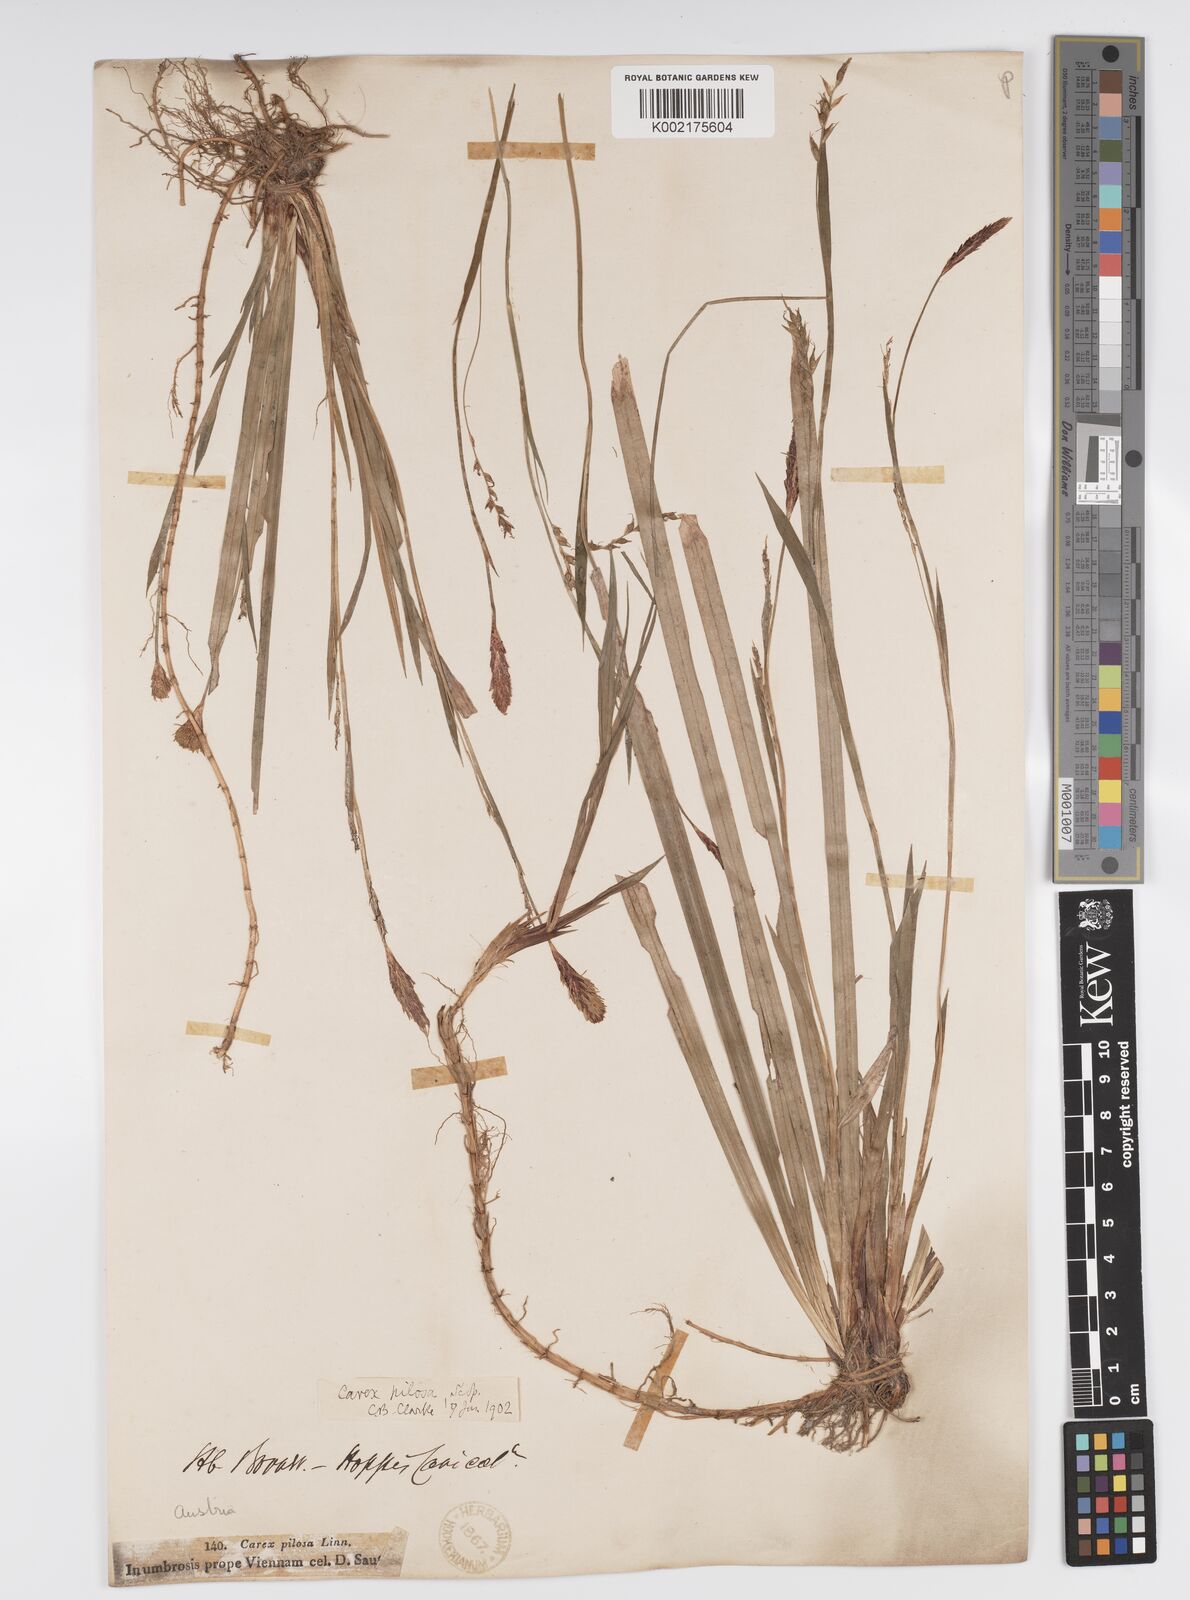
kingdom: Plantae
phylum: Tracheophyta
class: Liliopsida
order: Poales
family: Cyperaceae
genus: Carex
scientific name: Carex pilosa
